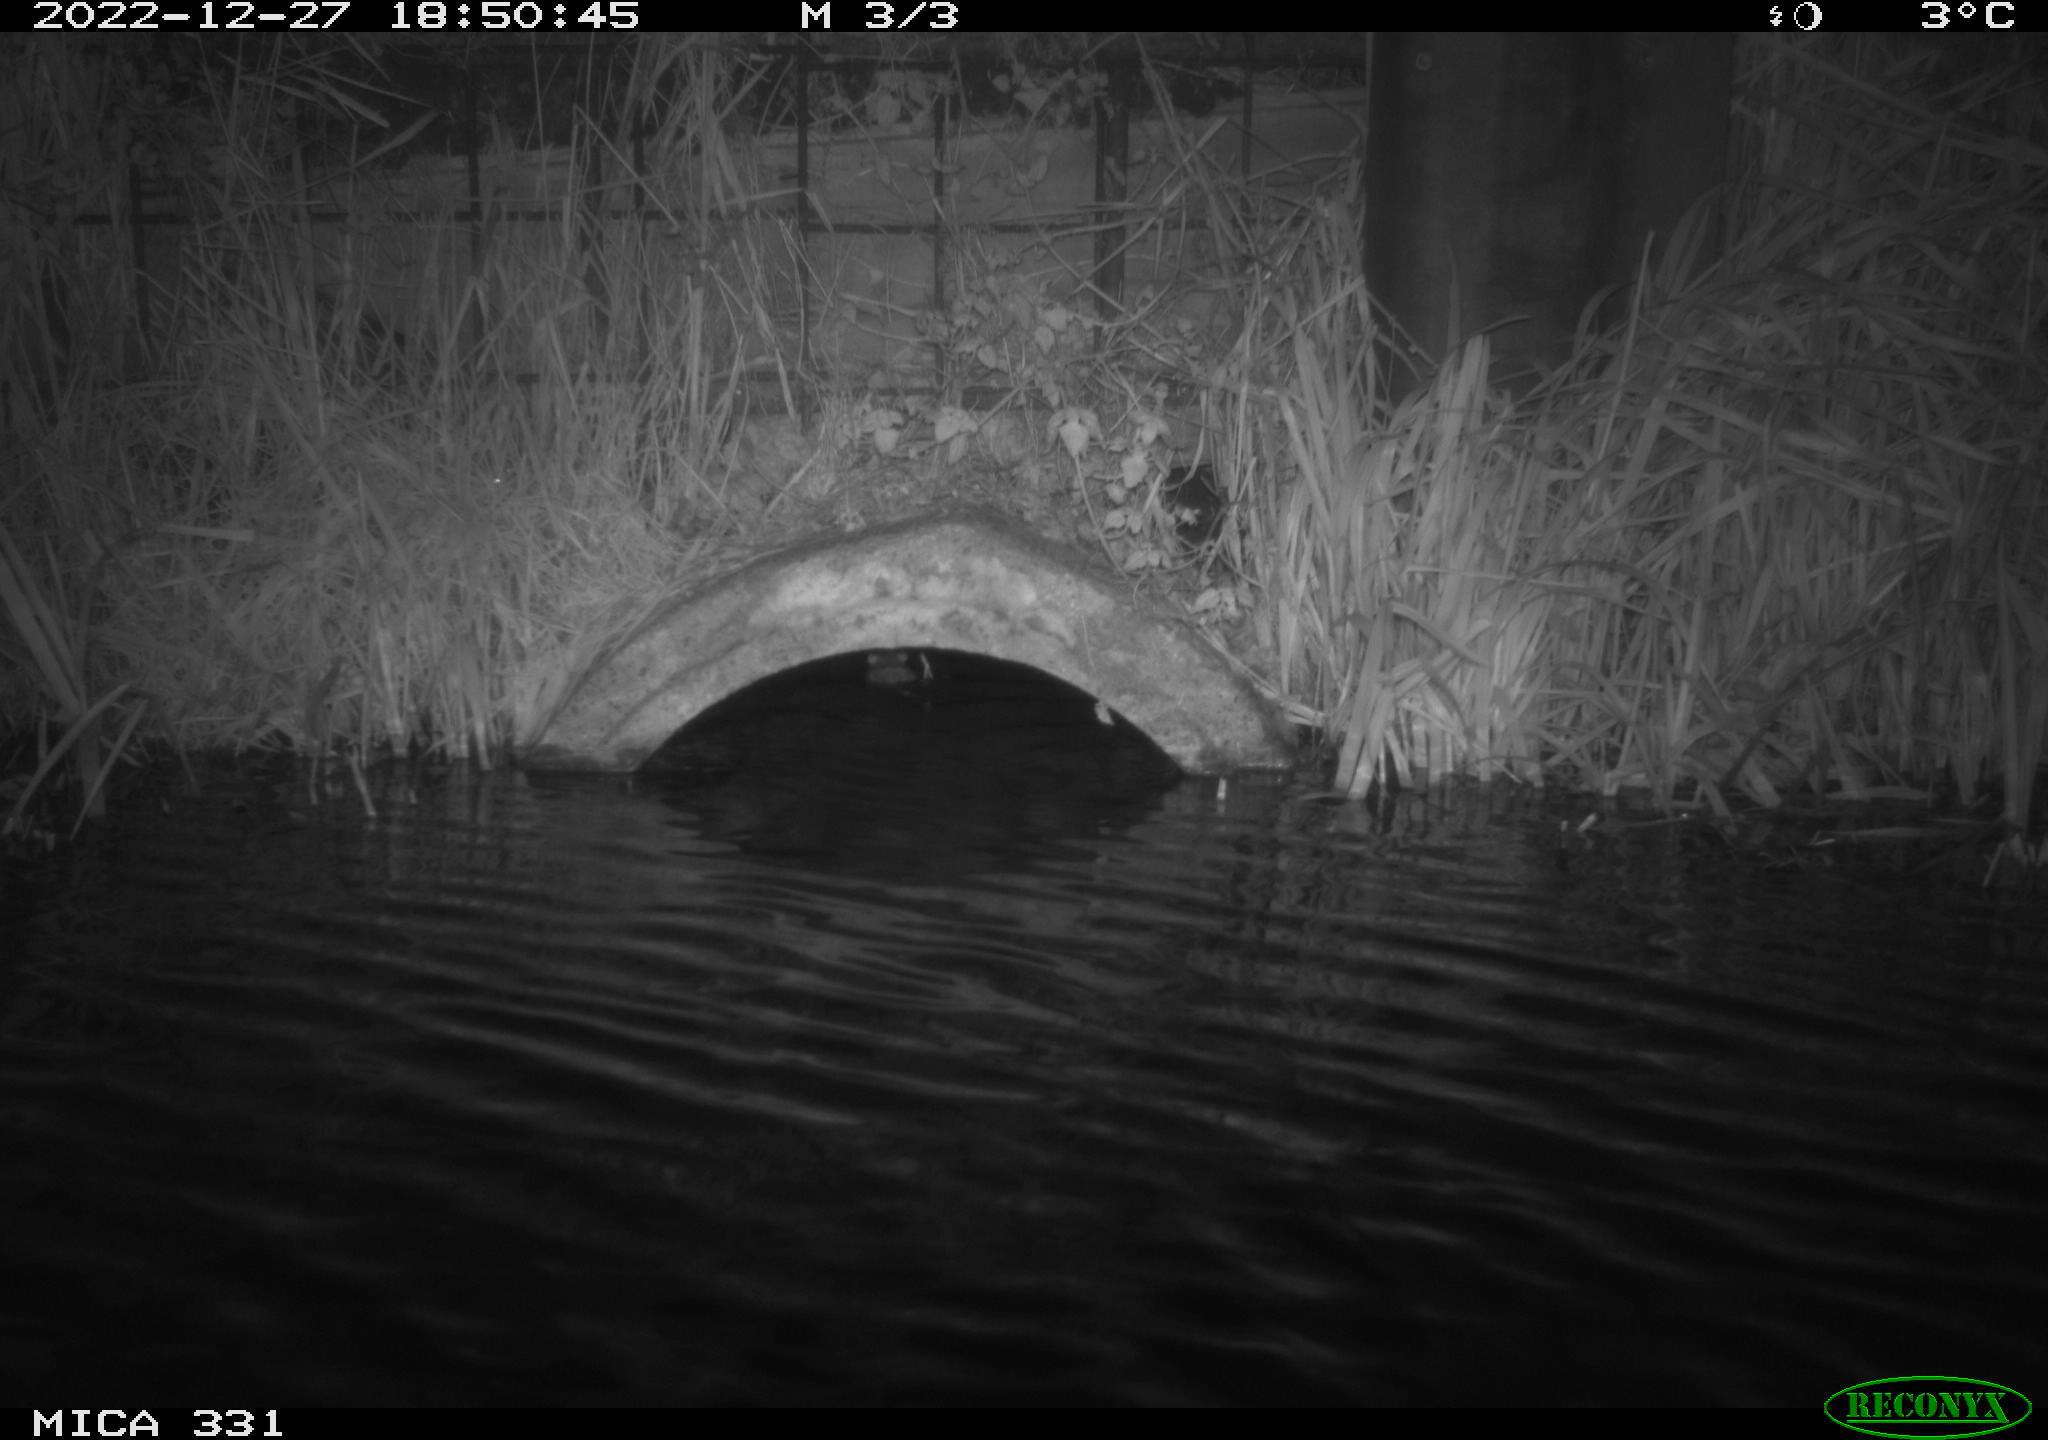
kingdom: Animalia
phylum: Chordata
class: Mammalia
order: Rodentia
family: Muridae
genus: Rattus
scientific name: Rattus norvegicus
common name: Brown rat
